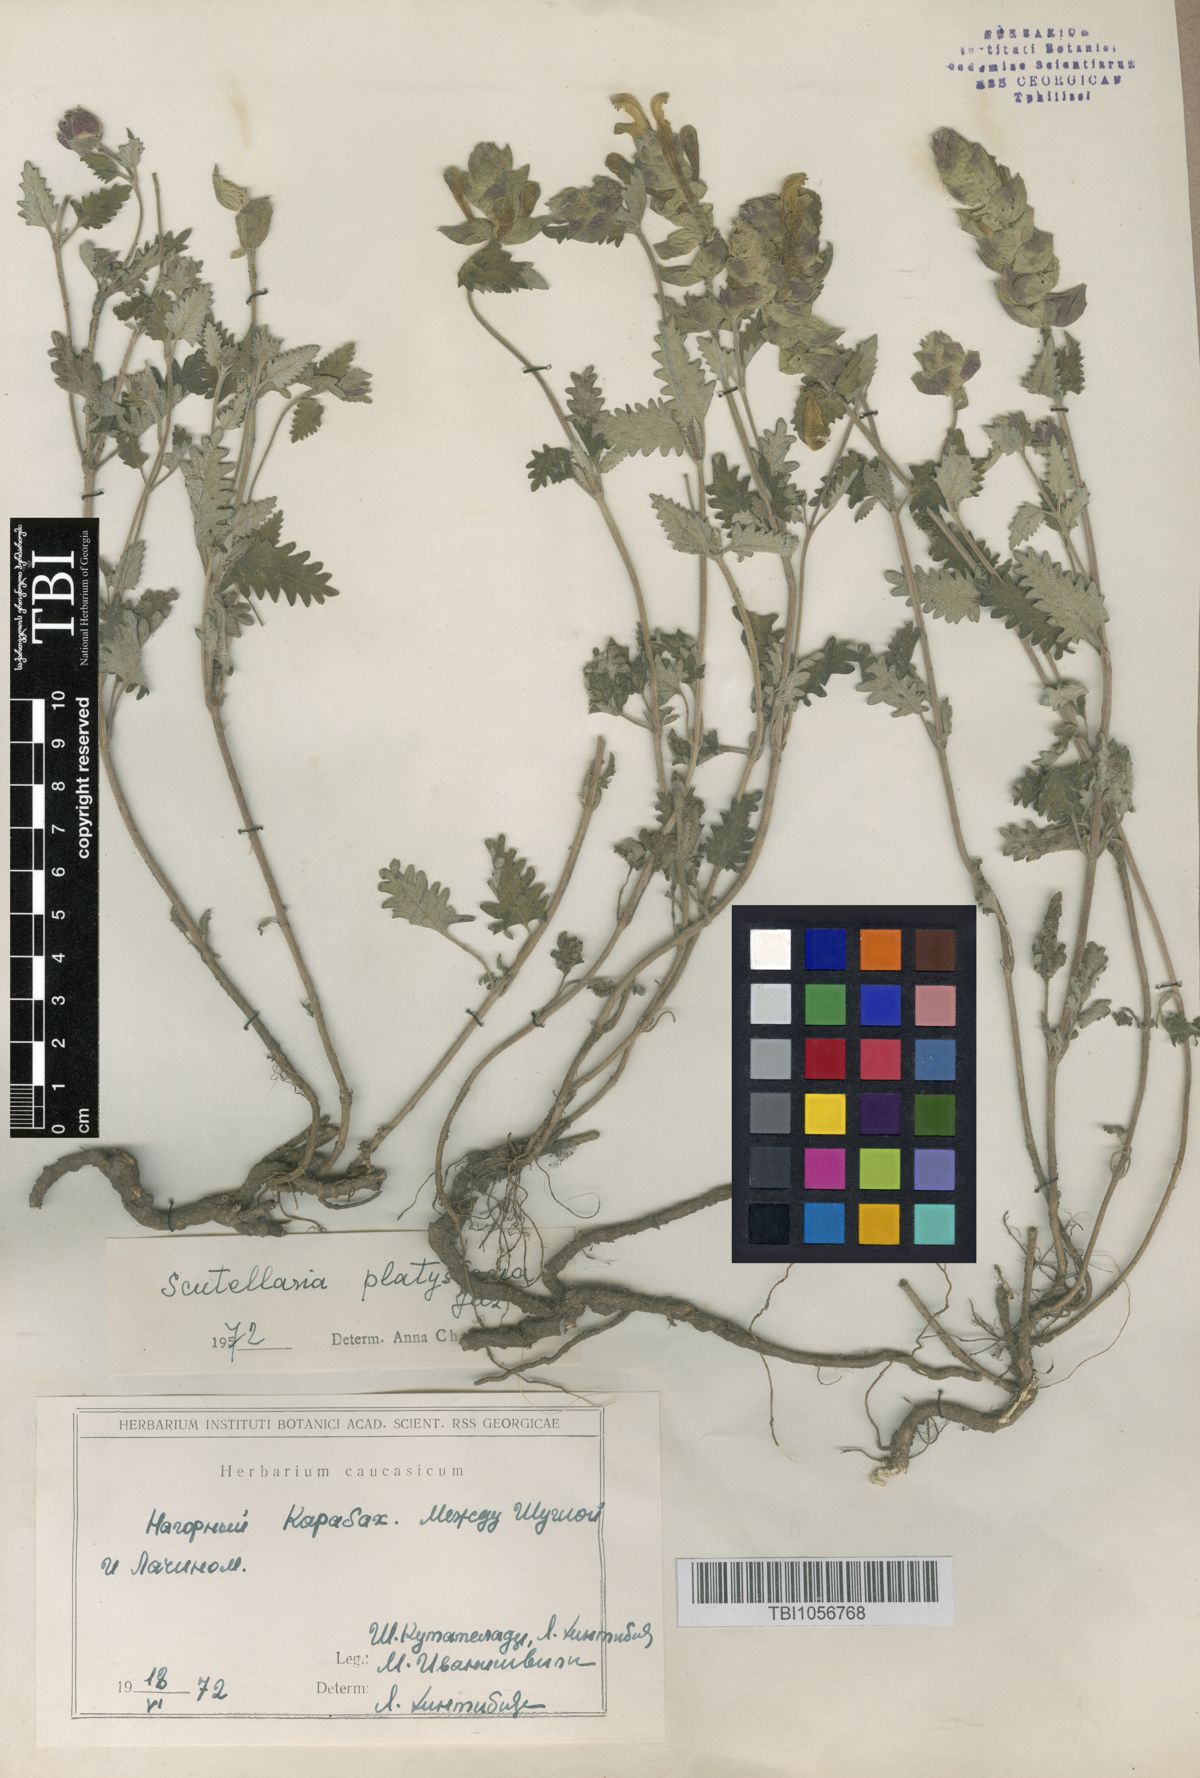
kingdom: Plantae
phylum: Tracheophyta
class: Magnoliopsida
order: Lamiales
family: Lamiaceae
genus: Scutellaria
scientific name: Scutellaria platystegia
